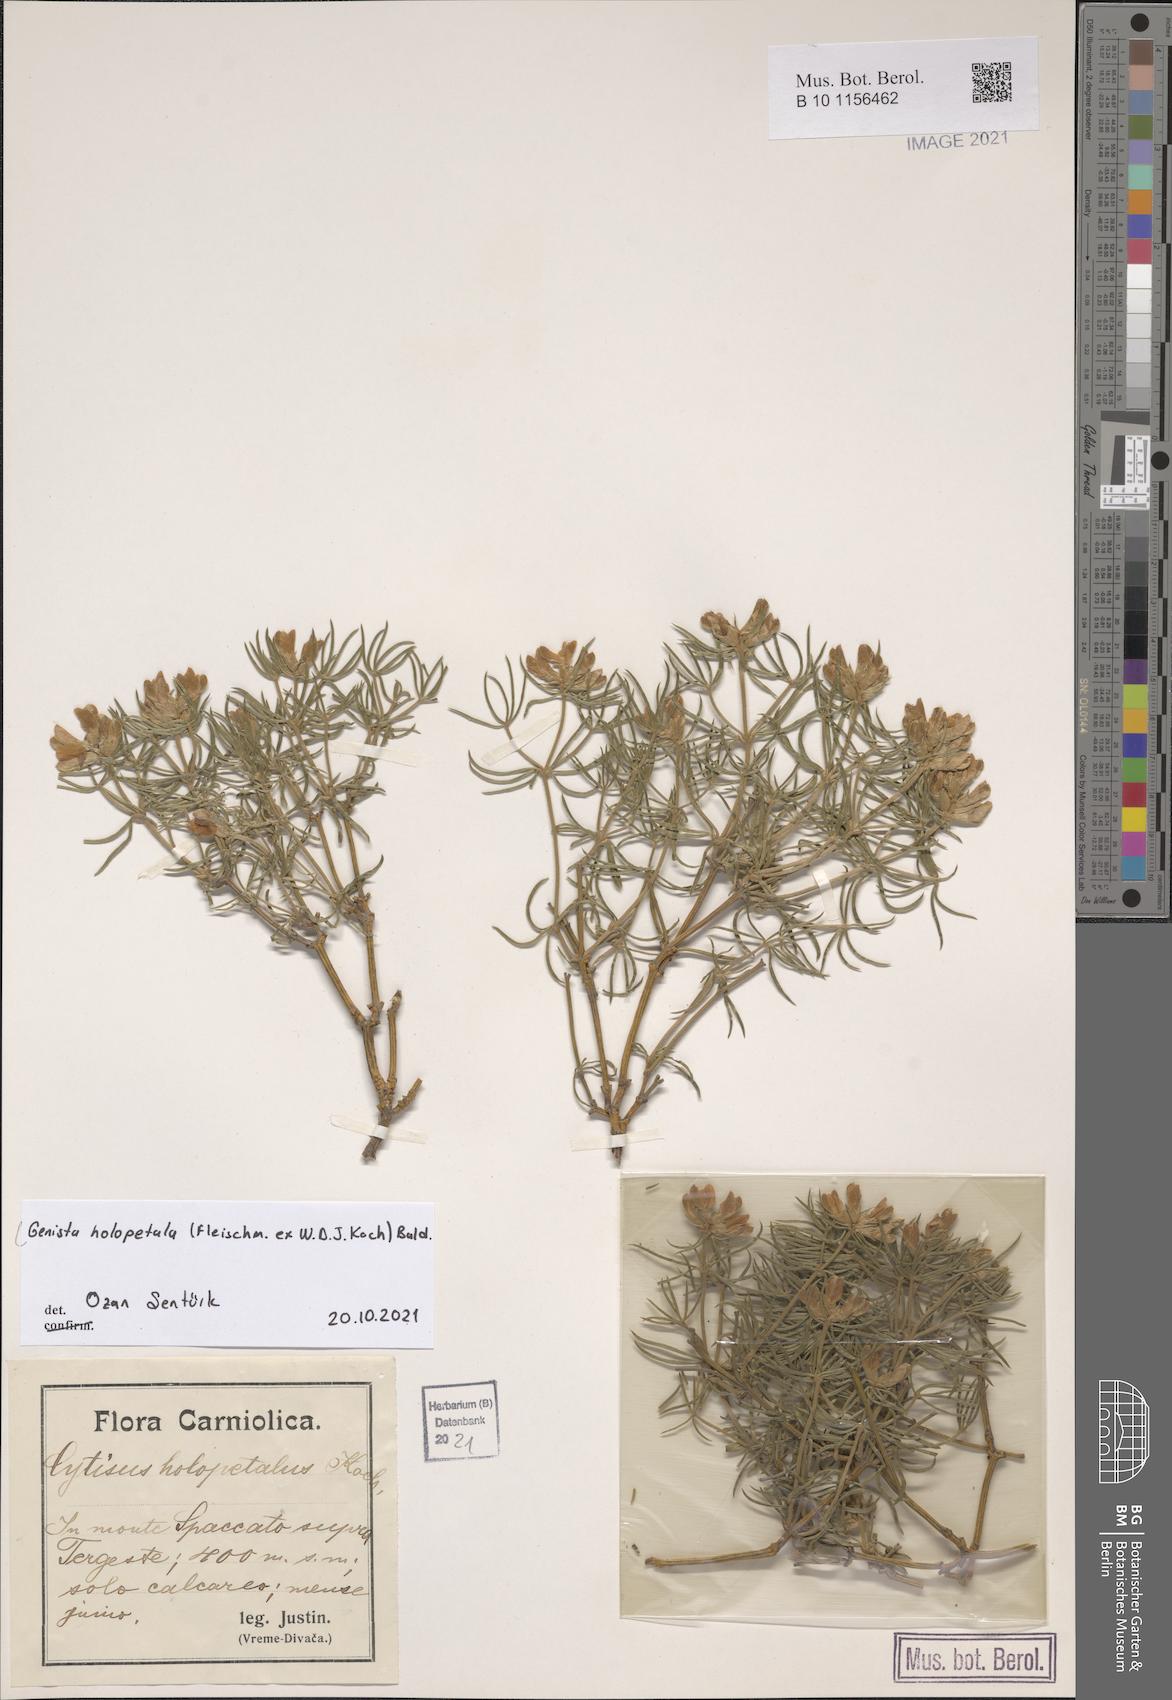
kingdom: Plantae
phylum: Tracheophyta
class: Magnoliopsida
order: Fabales
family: Fabaceae
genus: Genista
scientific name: Genista holopetala
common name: Entire-petalled gorse
